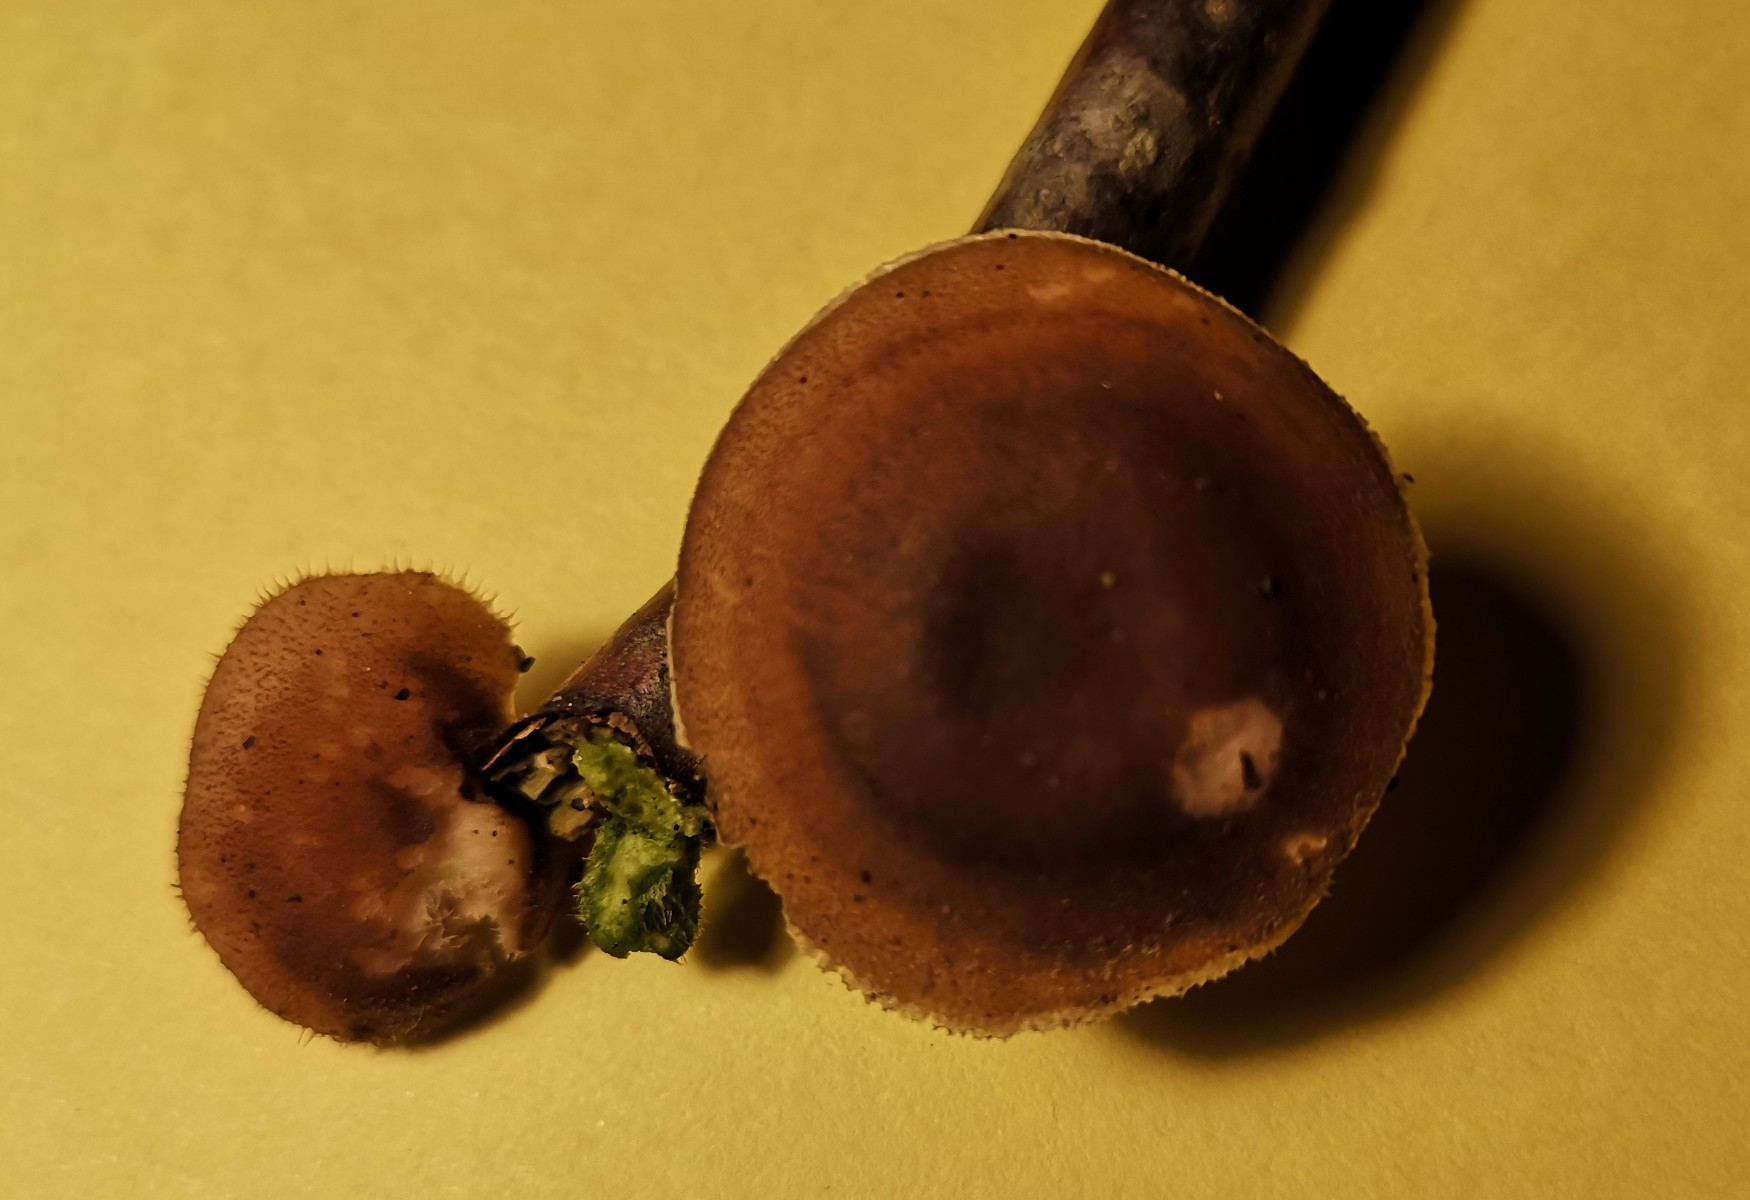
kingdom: Fungi
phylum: Basidiomycota
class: Agaricomycetes
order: Polyporales
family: Polyporaceae
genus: Lentinus
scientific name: Lentinus brumalis
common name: vinter-stilkporesvamp
